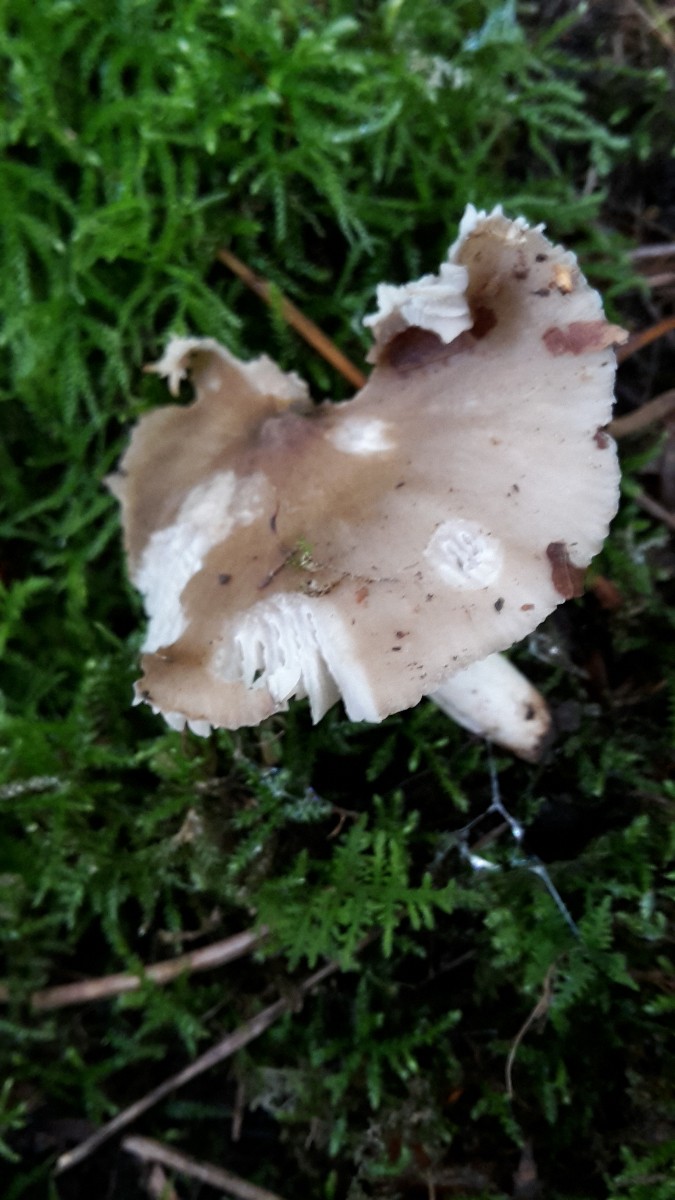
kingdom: Fungi
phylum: Basidiomycota
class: Agaricomycetes
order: Agaricales
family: Hygrophoraceae
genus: Cuphophyllus
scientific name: Cuphophyllus fornicatus
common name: gråbrun vokshat
